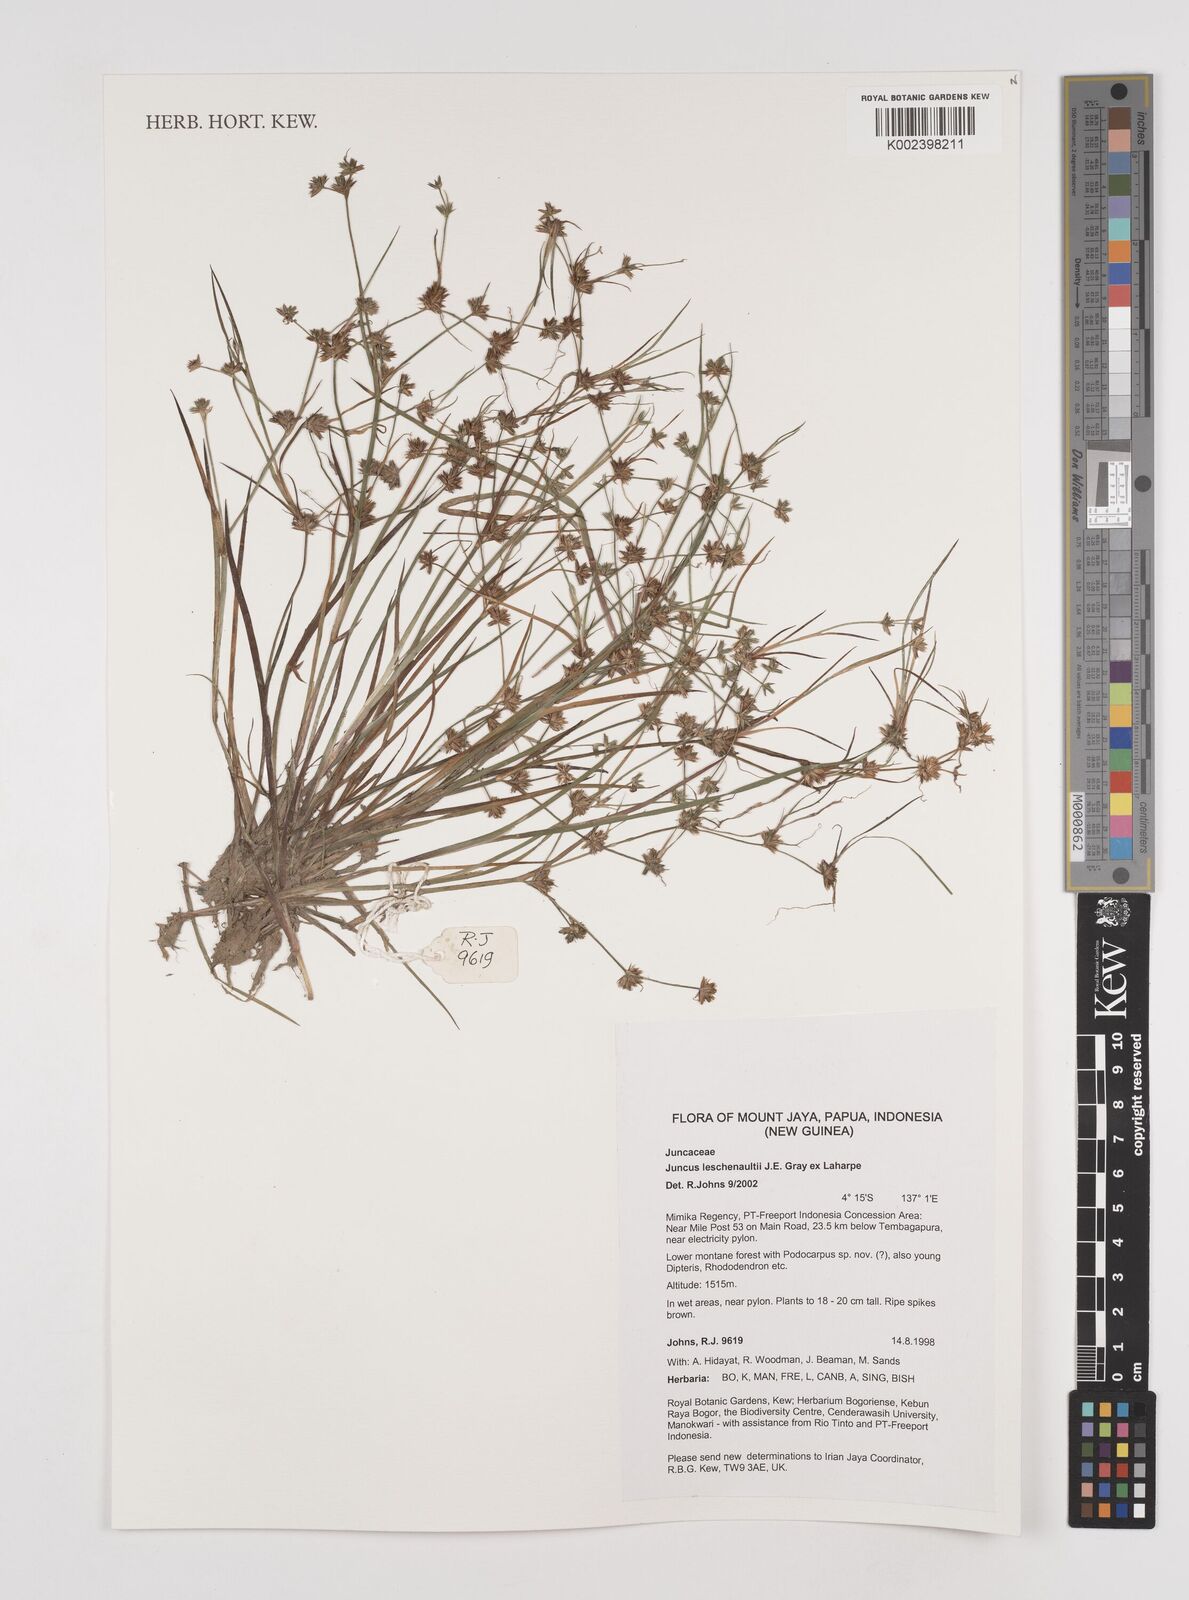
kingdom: Plantae
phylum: Tracheophyta
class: Liliopsida
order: Poales
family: Juncaceae
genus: Juncus
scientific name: Juncus prismatocarpus
